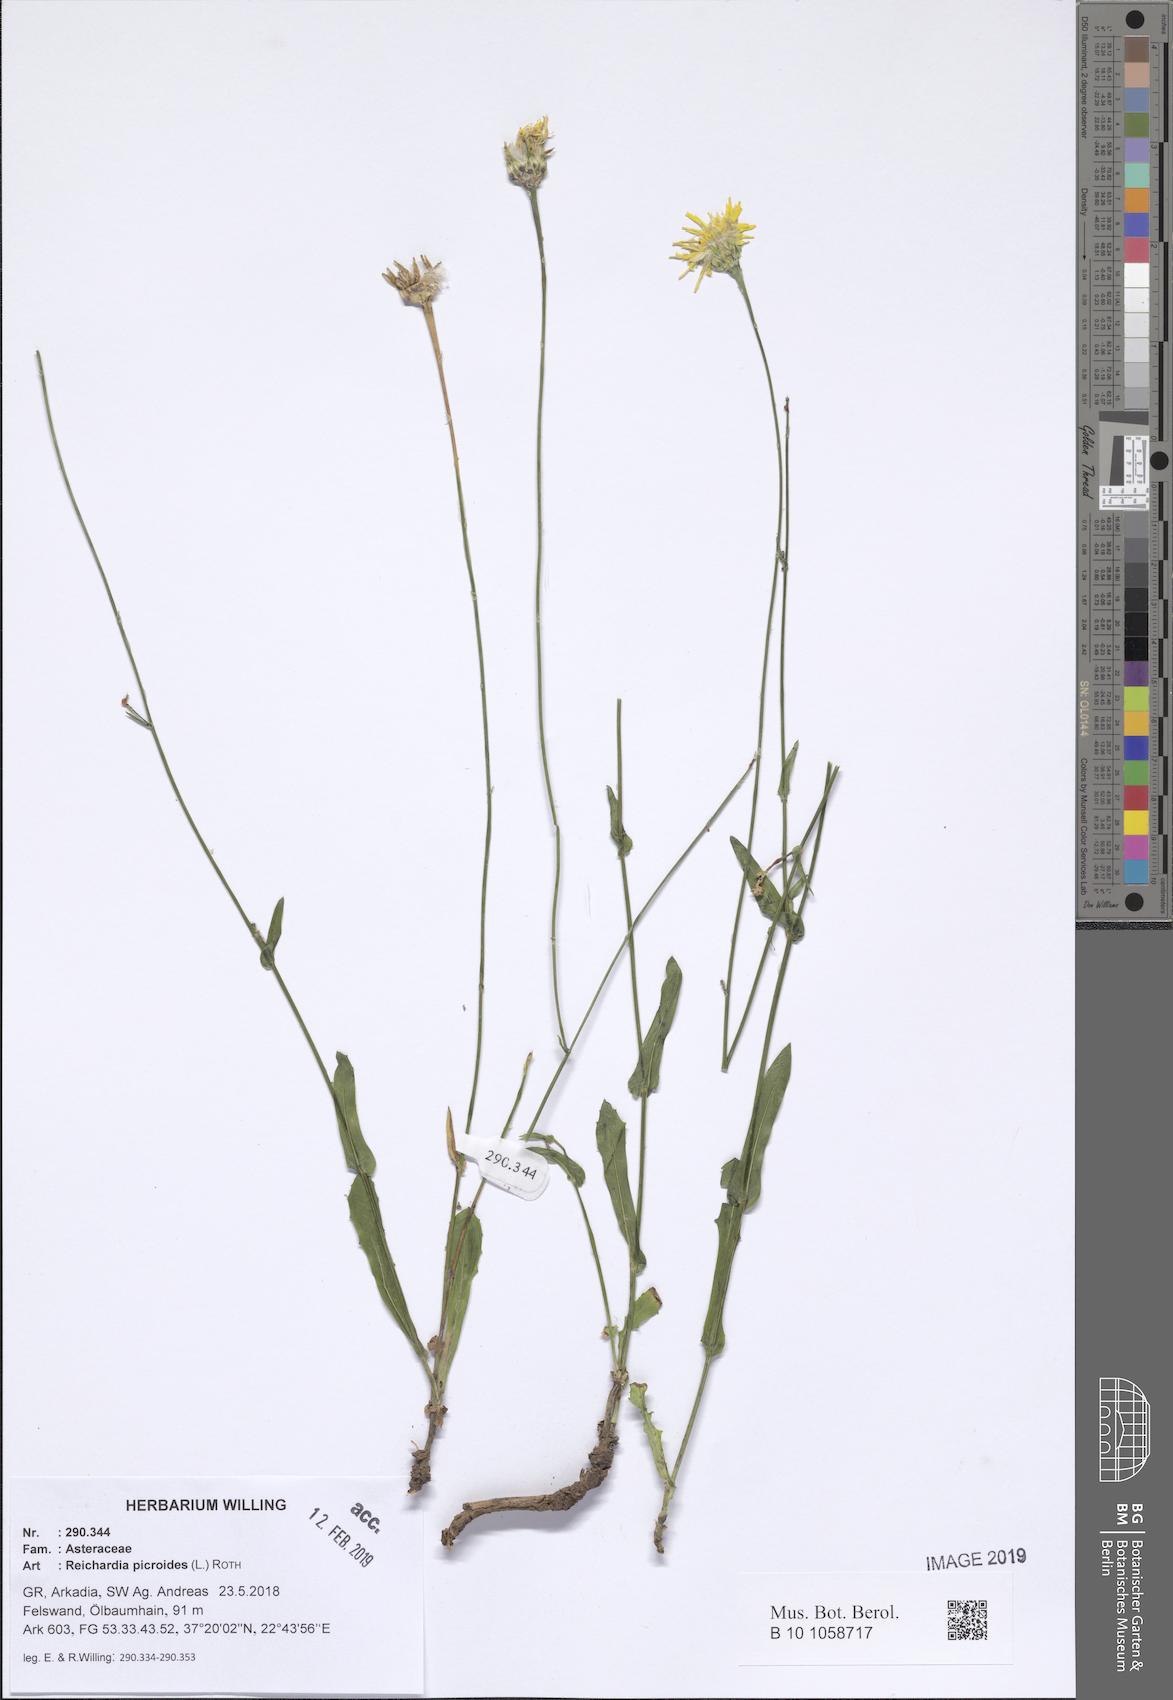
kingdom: Plantae
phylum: Tracheophyta
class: Magnoliopsida
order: Asterales
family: Asteraceae
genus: Reichardia
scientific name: Reichardia picroides
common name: Common brighteyes
